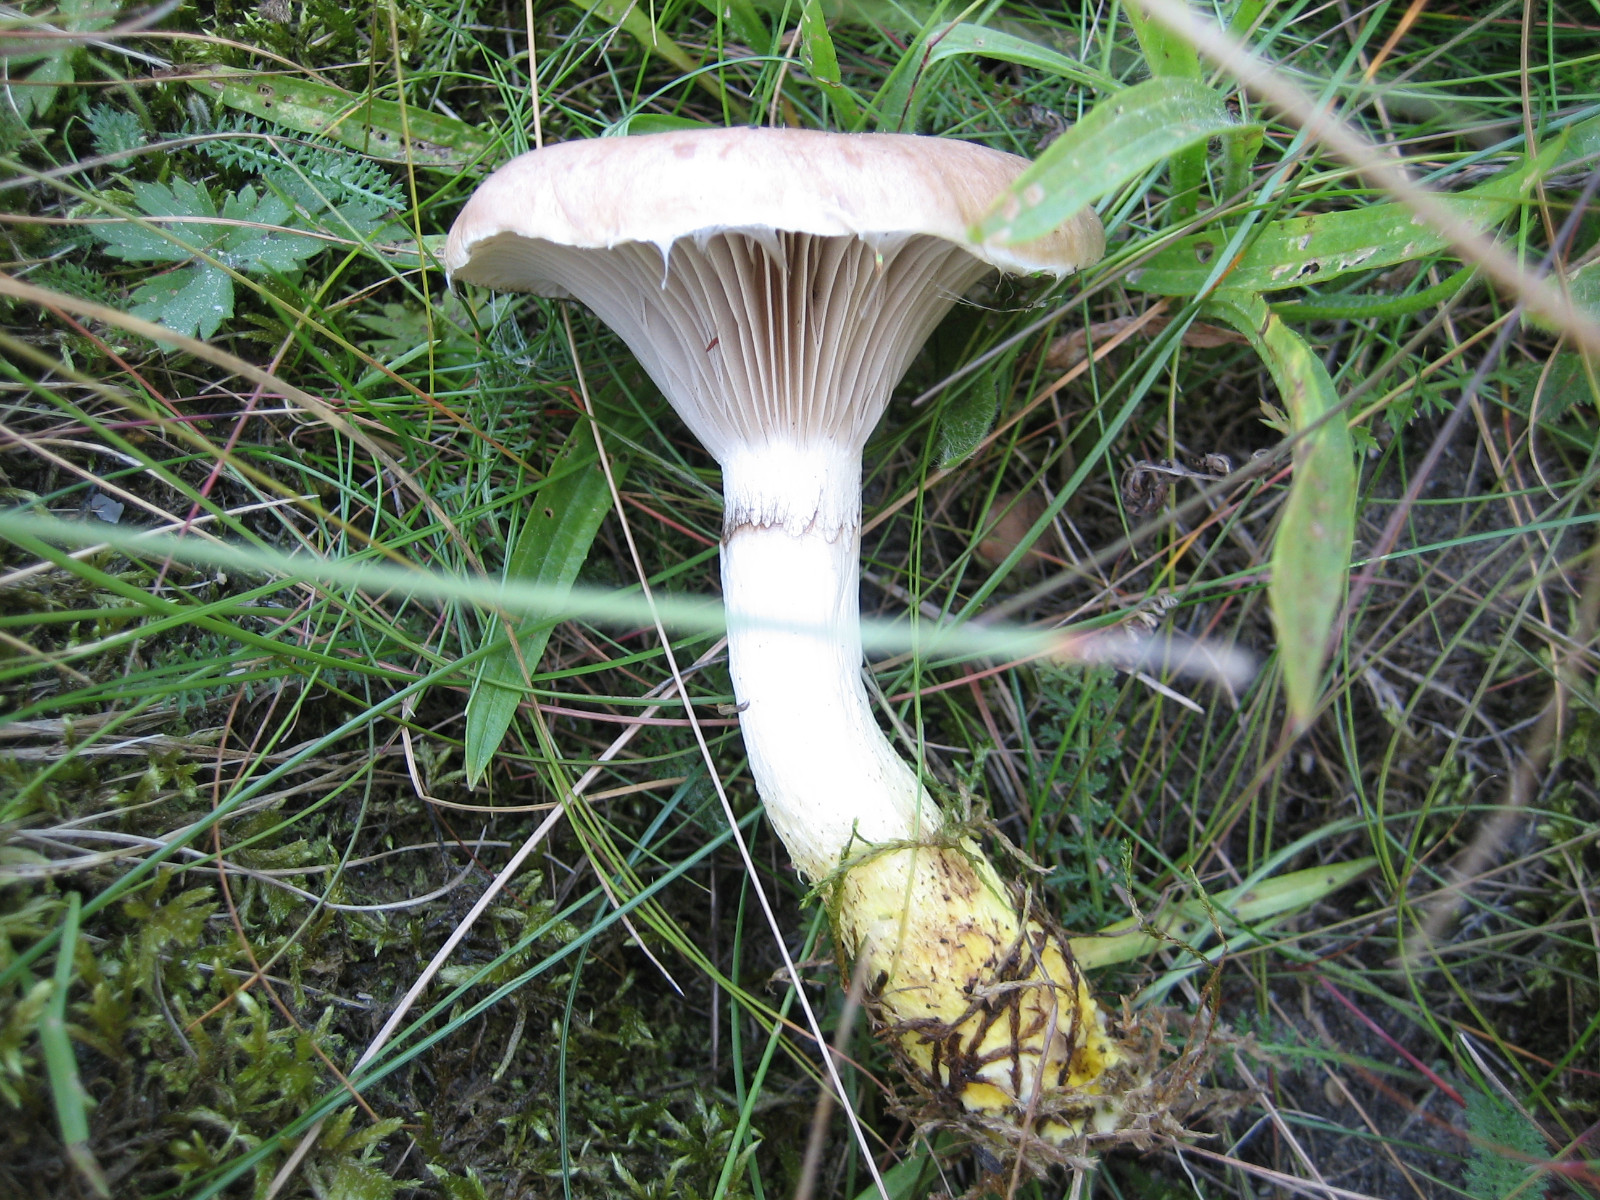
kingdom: Fungi
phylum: Basidiomycota
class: Agaricomycetes
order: Boletales
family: Gomphidiaceae
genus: Gomphidius
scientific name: Gomphidius glutinosus
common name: grå slimslør
